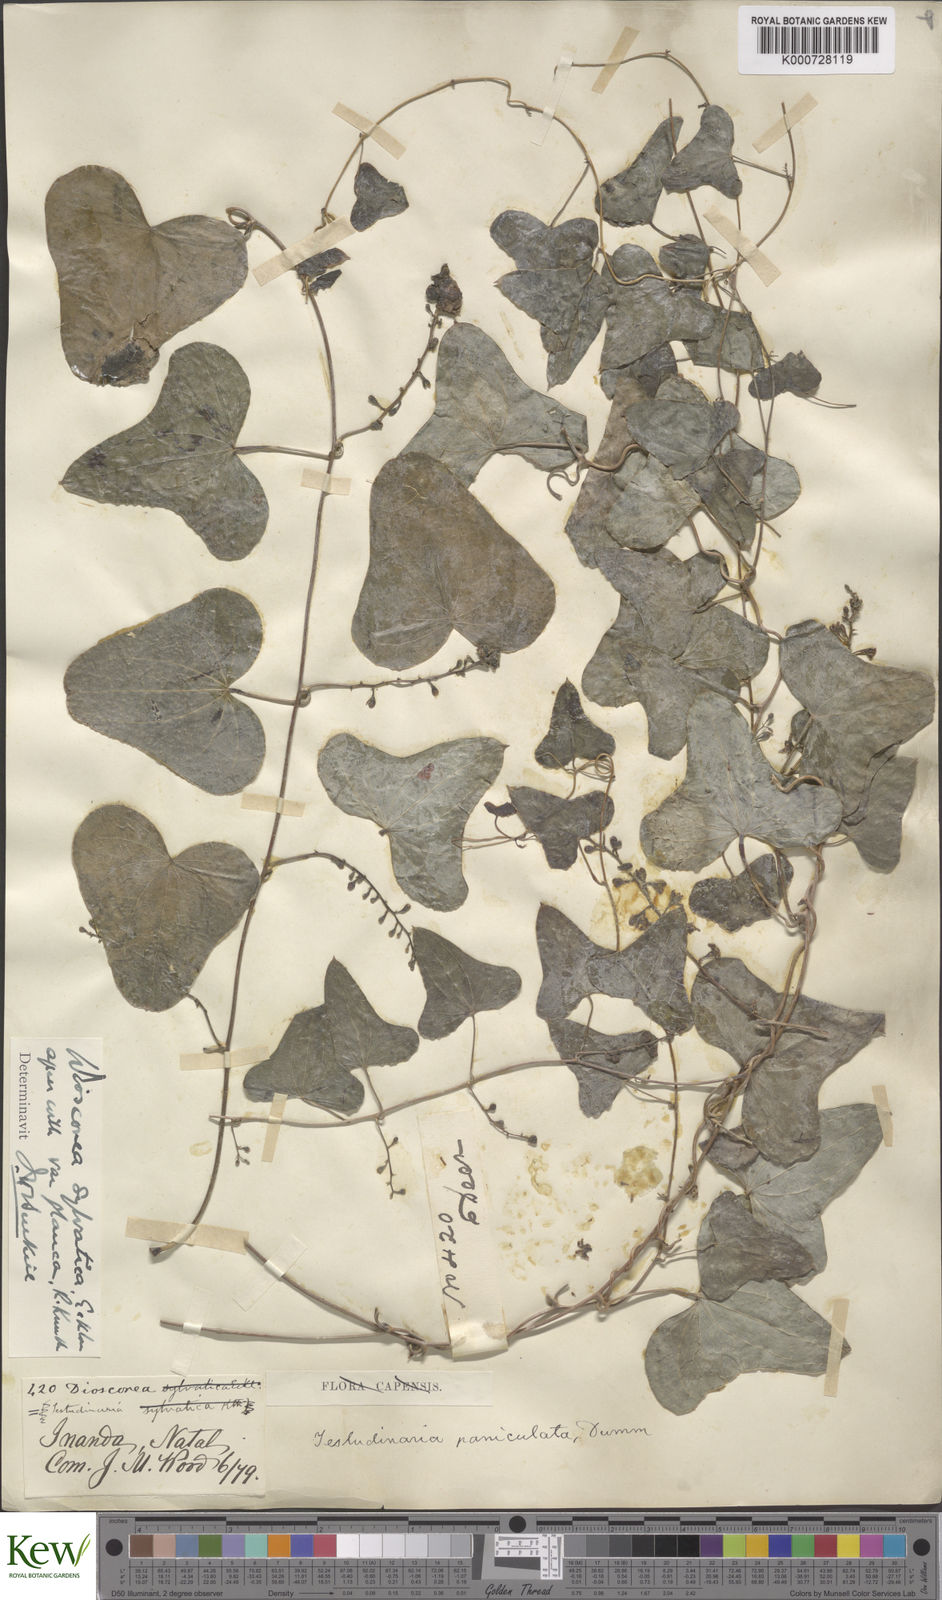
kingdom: Plantae
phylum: Tracheophyta
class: Liliopsida
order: Dioscoreales
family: Dioscoreaceae
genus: Dioscorea
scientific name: Dioscorea sylvatica
